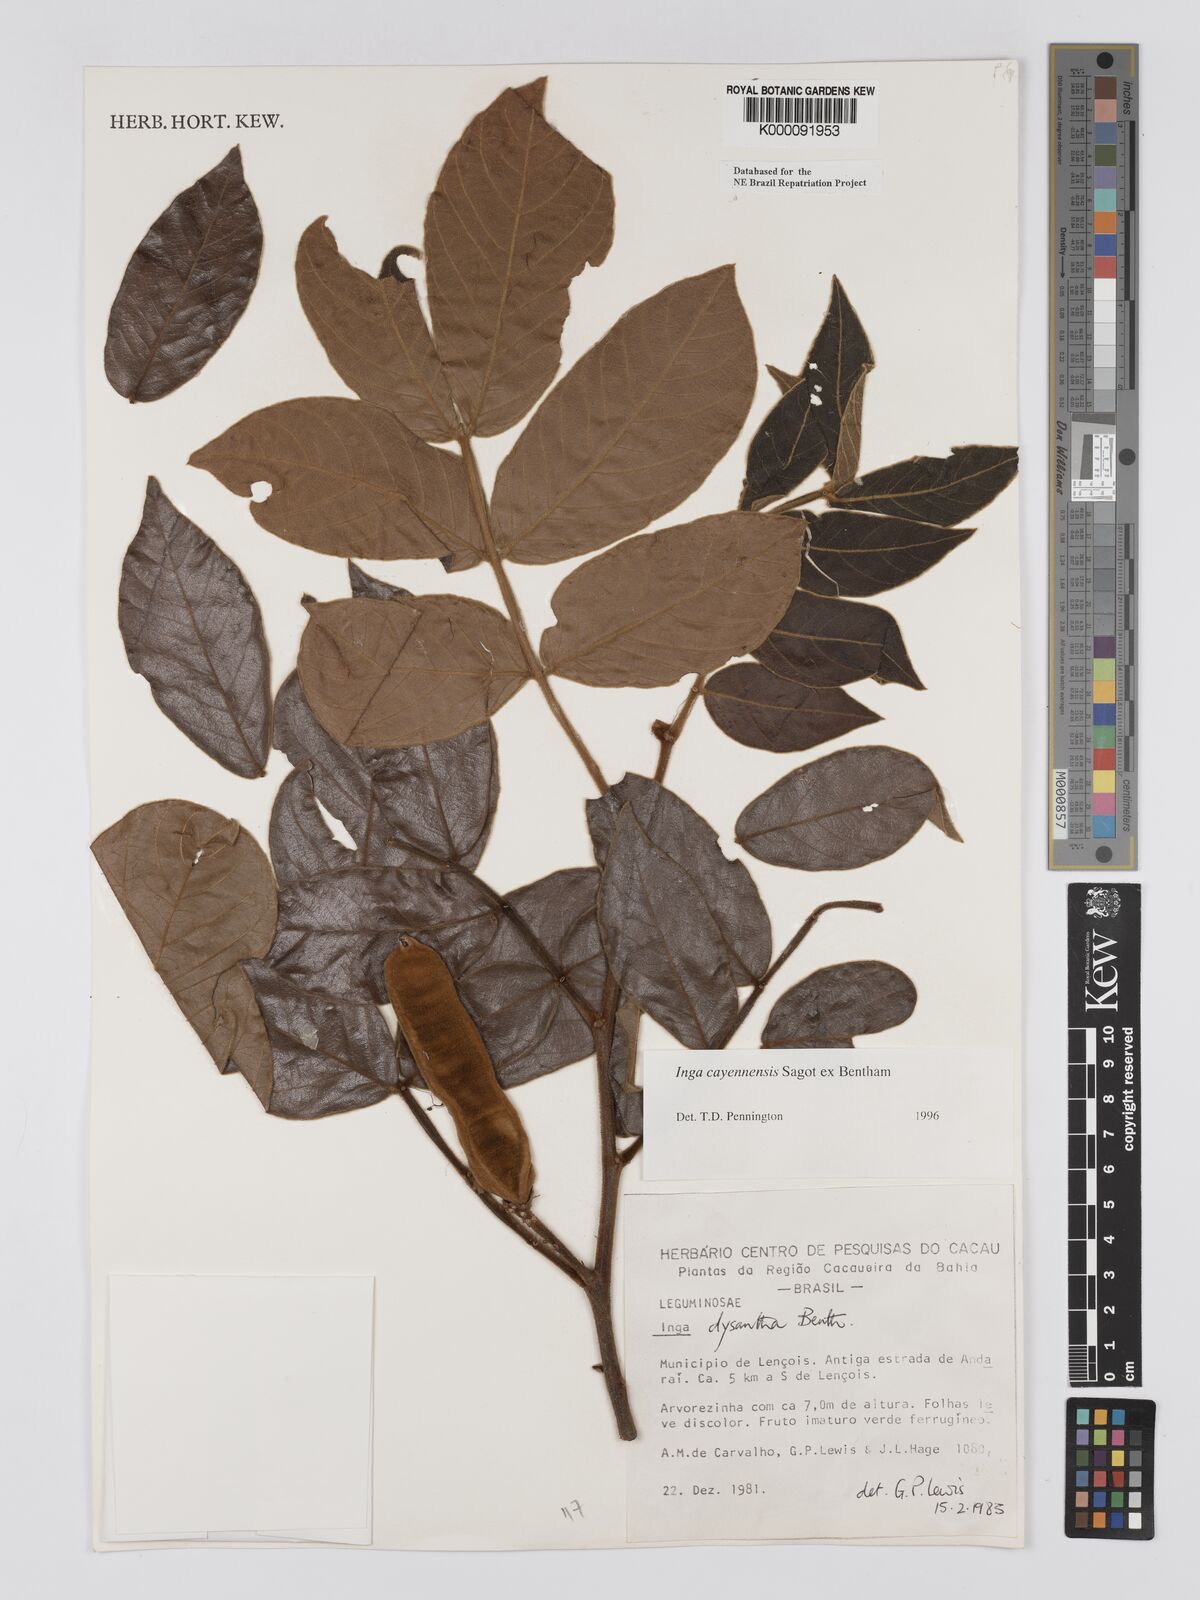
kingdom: Plantae
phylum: Tracheophyta
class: Magnoliopsida
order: Fabales
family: Fabaceae
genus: Inga
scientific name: Inga
